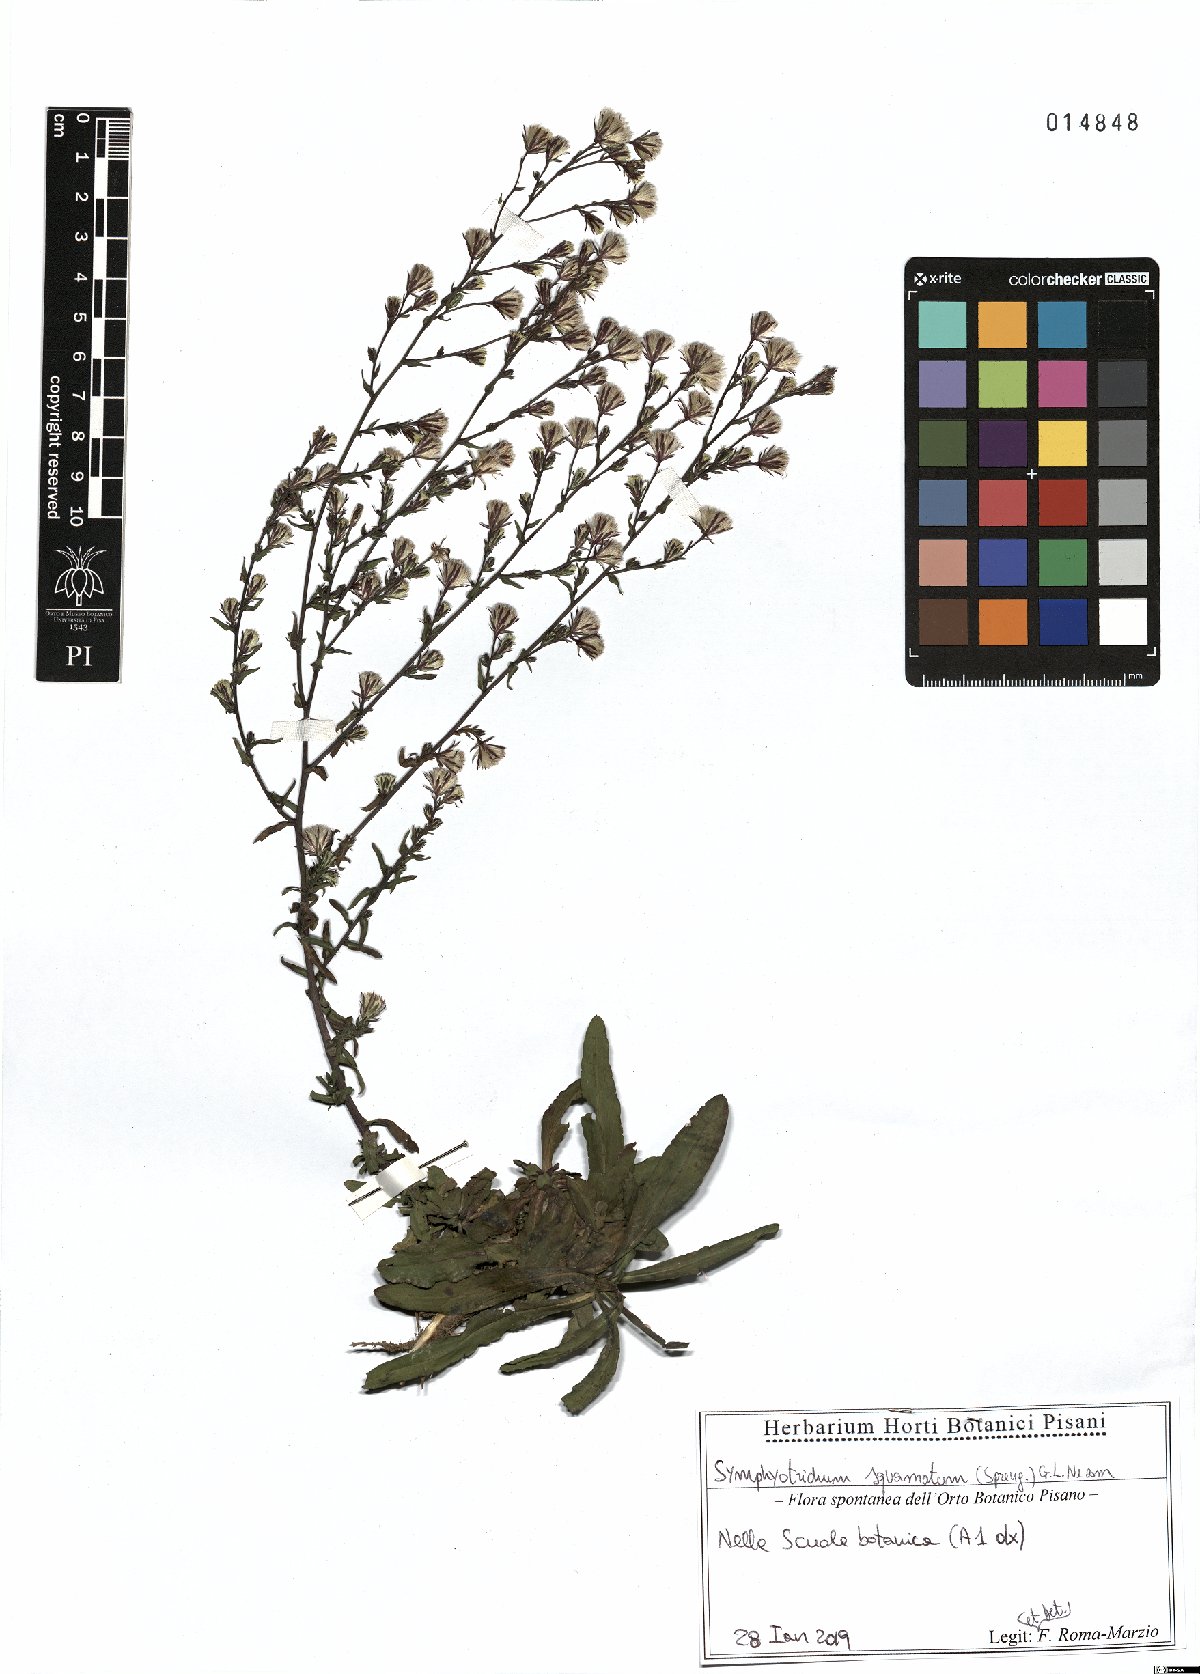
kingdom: Plantae
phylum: Tracheophyta
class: Magnoliopsida
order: Asterales
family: Asteraceae
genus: Symphyotrichum
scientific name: Symphyotrichum squamatum
